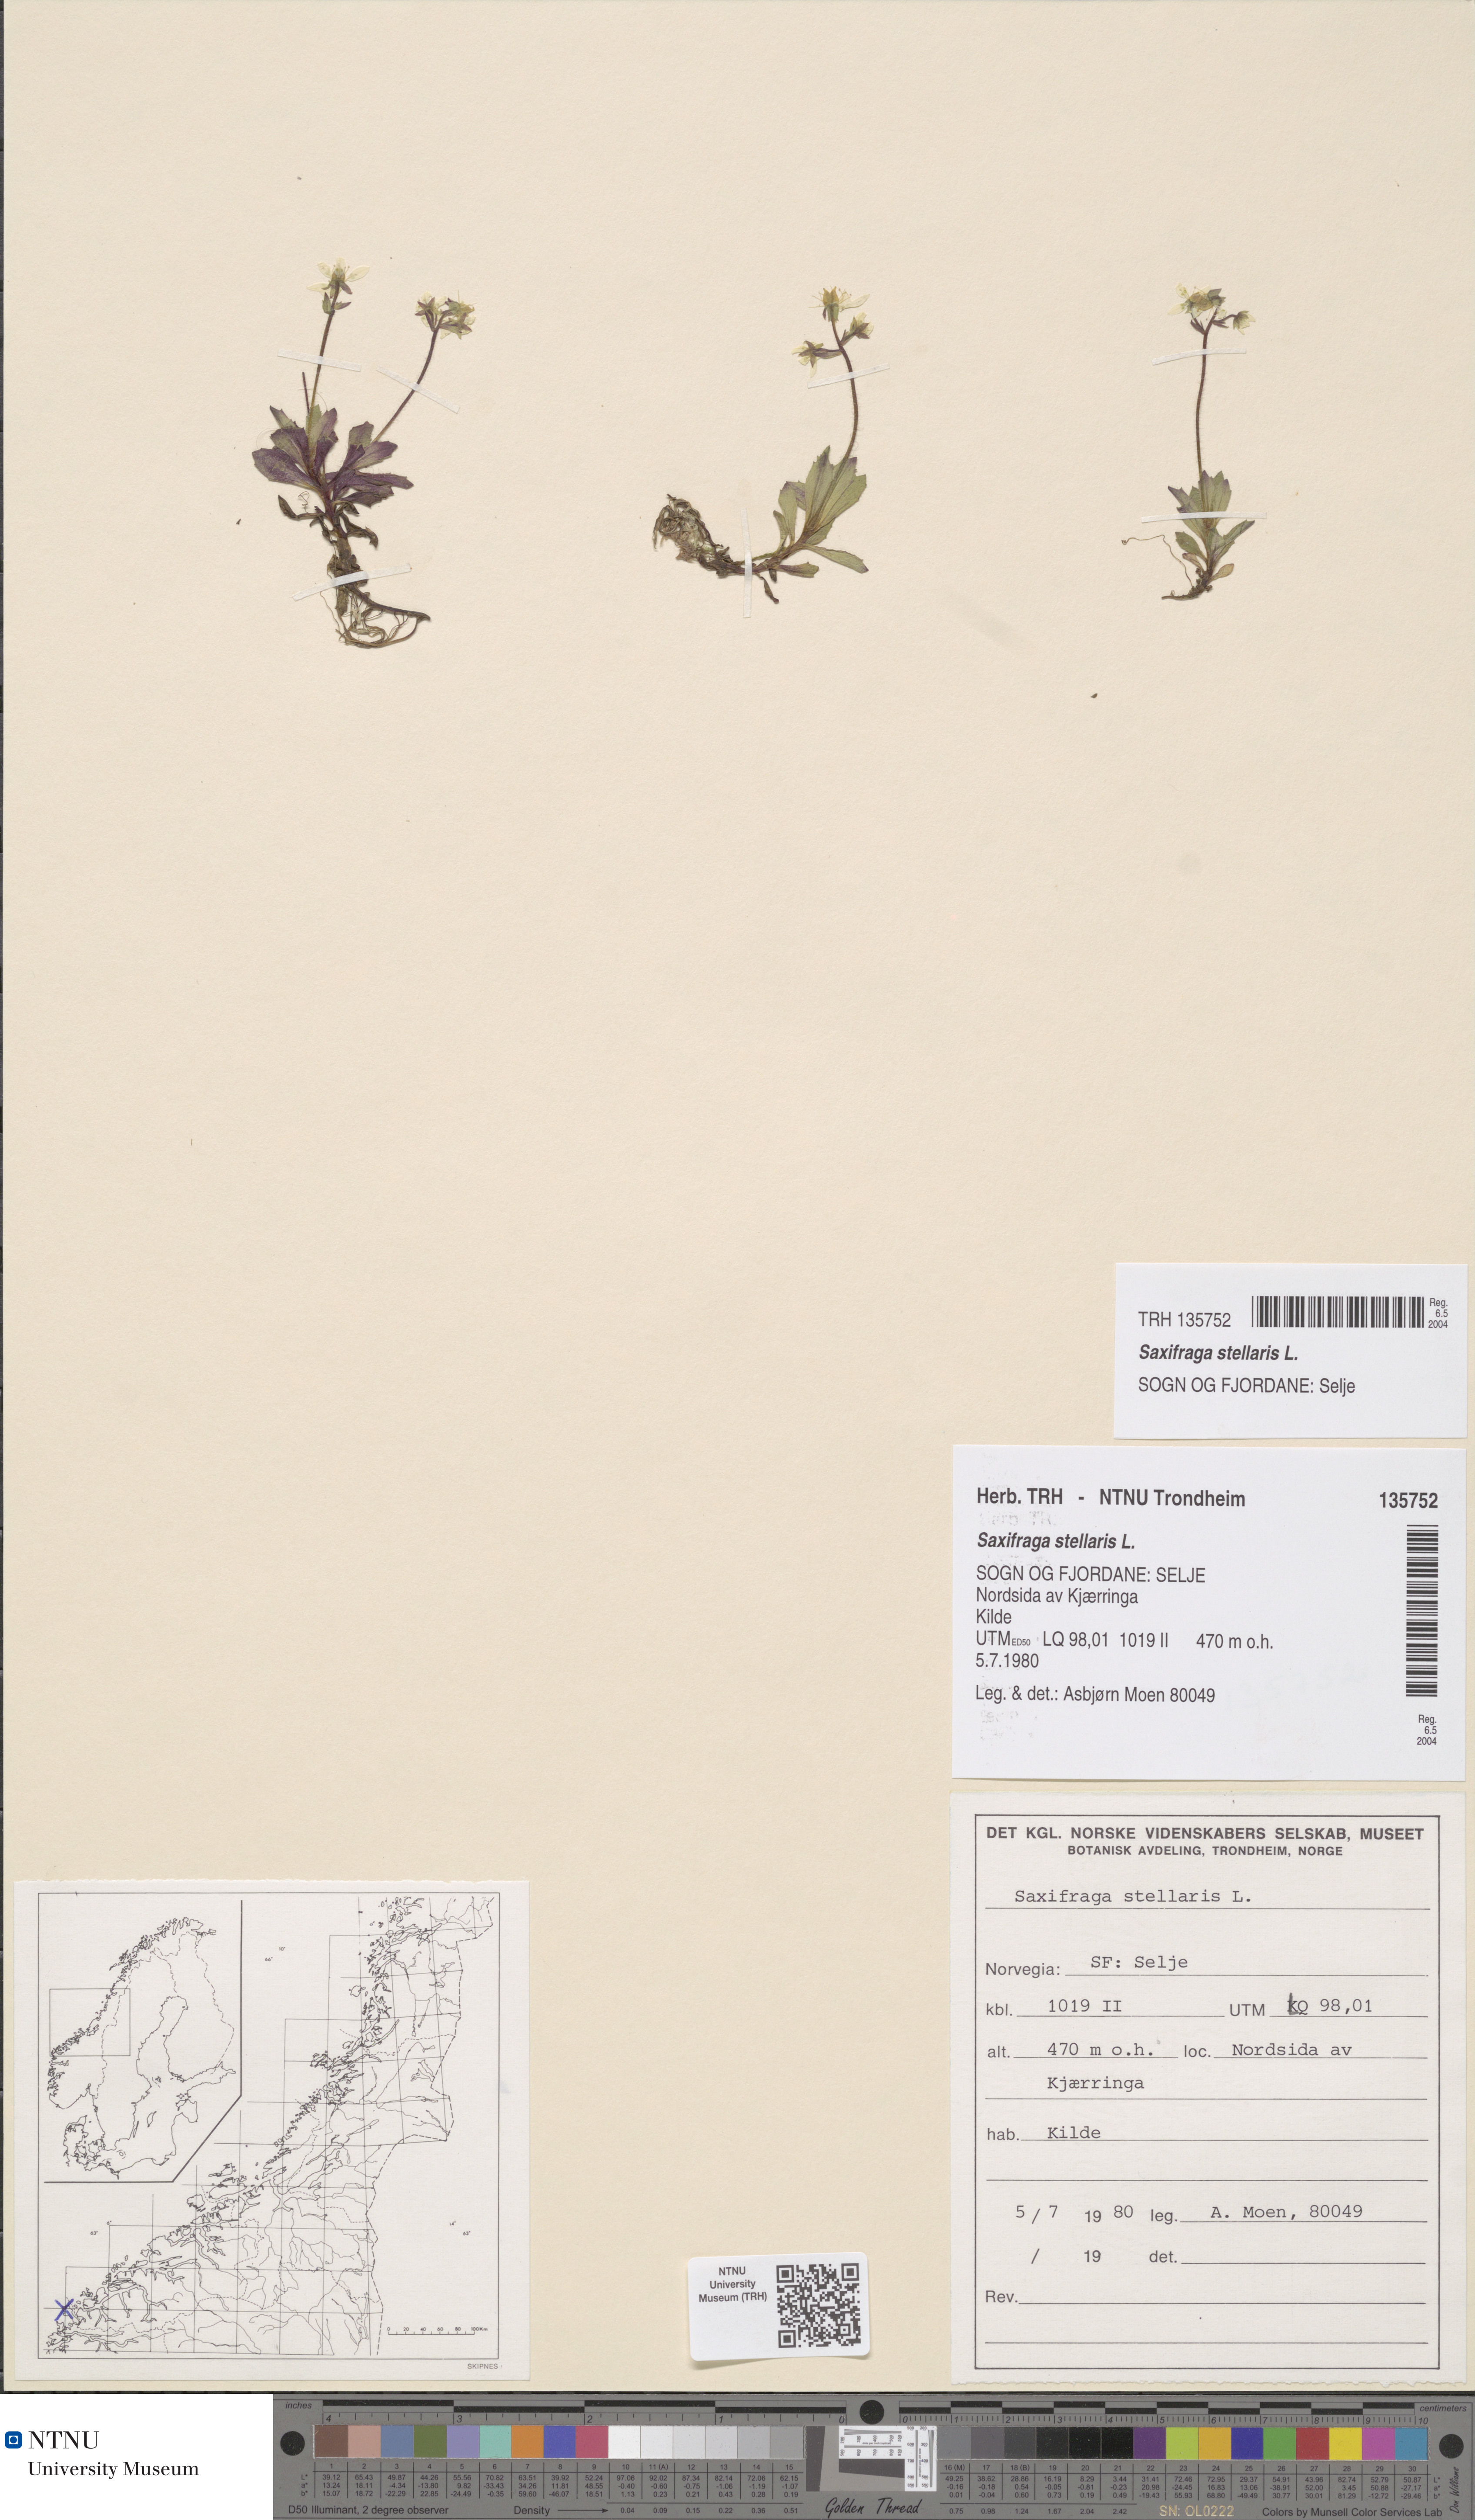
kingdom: Plantae
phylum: Tracheophyta
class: Magnoliopsida
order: Saxifragales
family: Saxifragaceae
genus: Micranthes
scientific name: Micranthes stellaris
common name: Starry saxifrage
